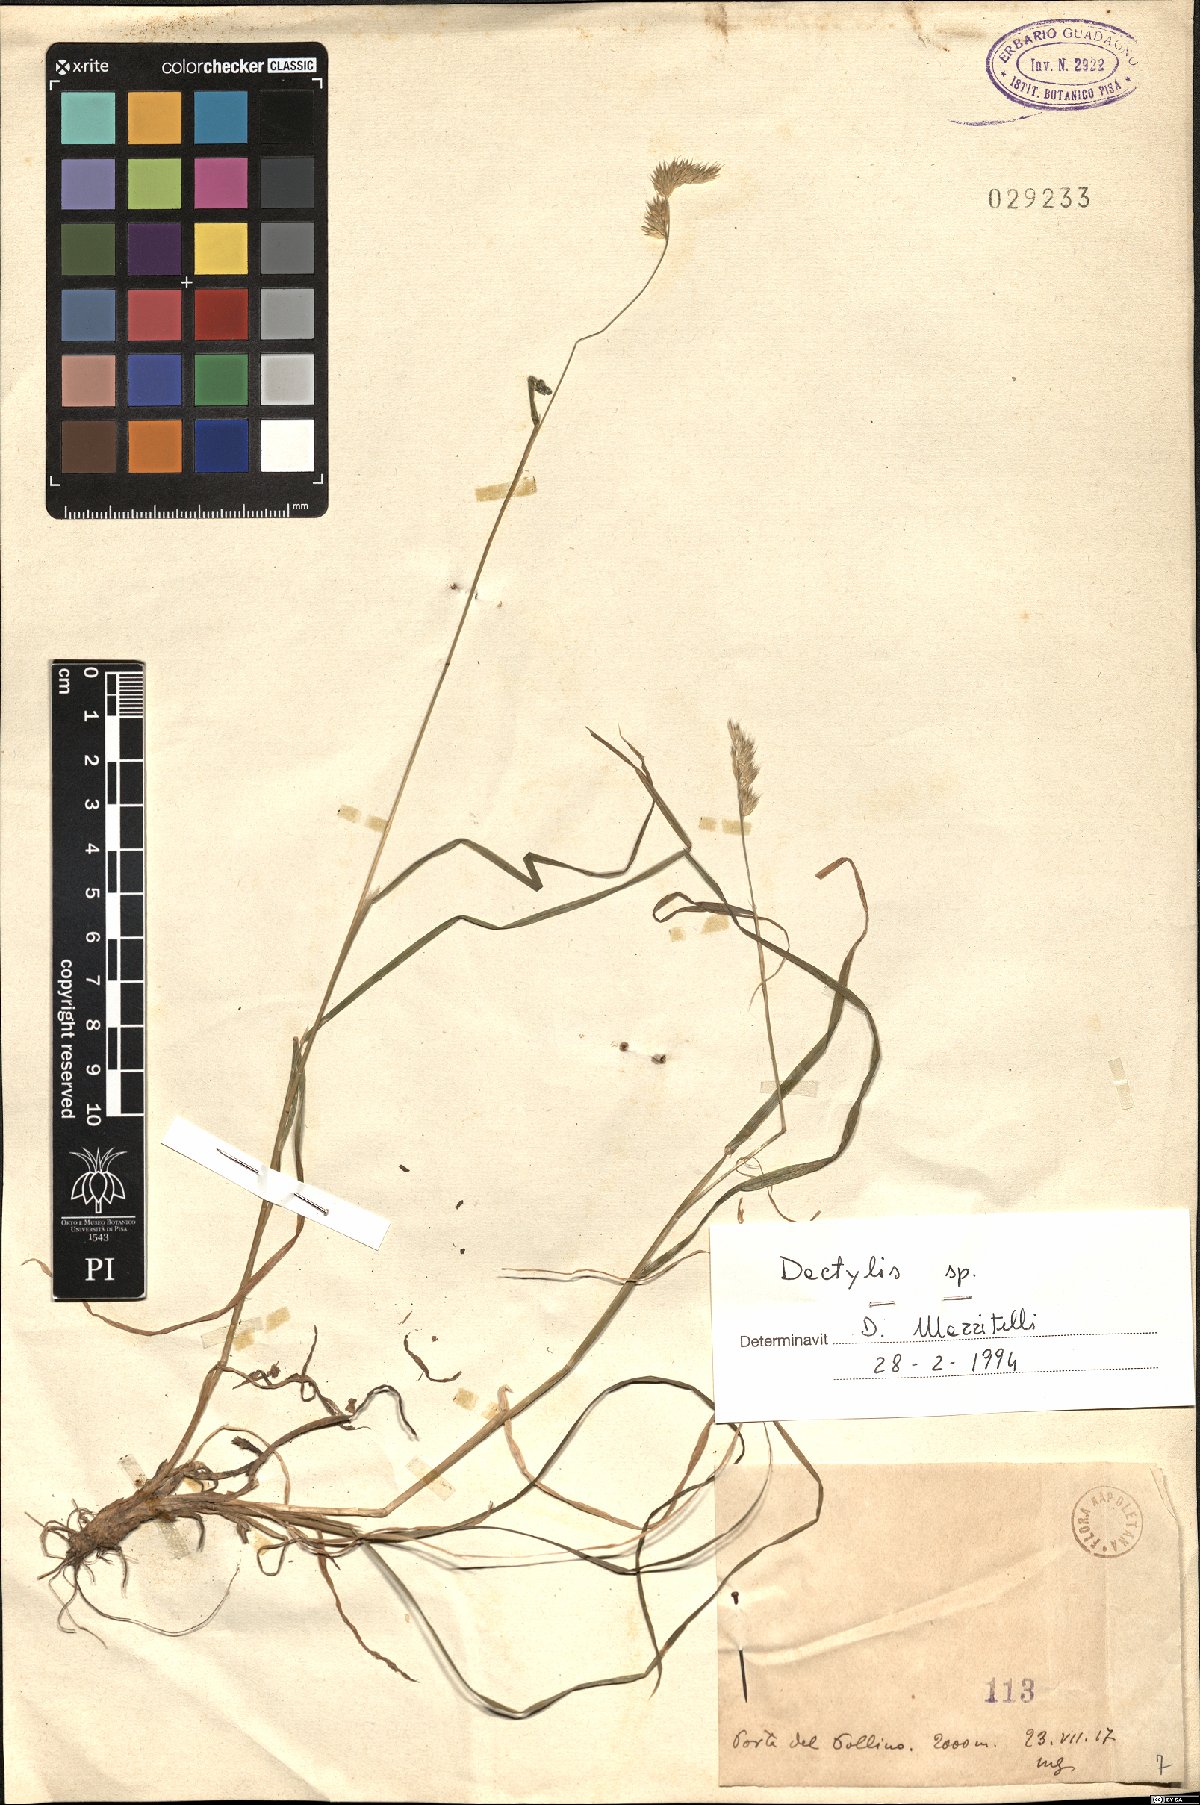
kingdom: Plantae
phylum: Tracheophyta
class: Liliopsida
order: Poales
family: Poaceae
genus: Dactylis
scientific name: Dactylis
